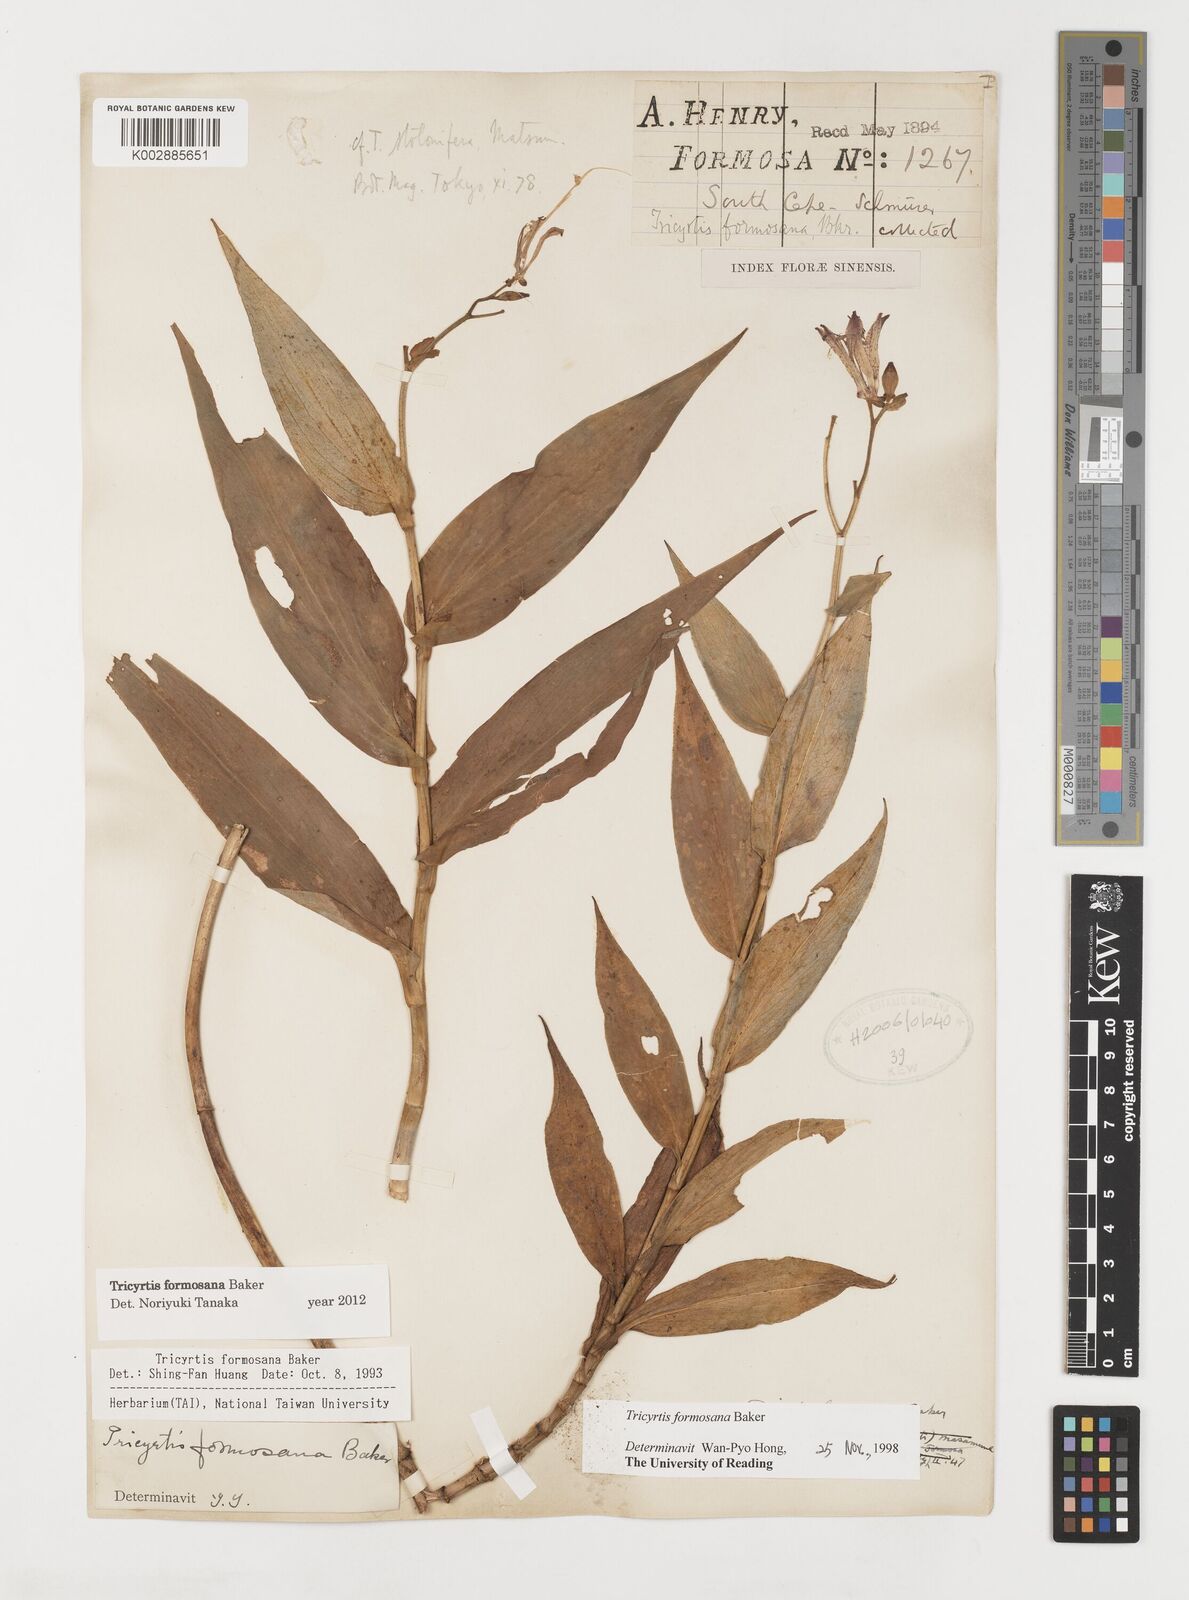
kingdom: Plantae
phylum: Tracheophyta
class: Liliopsida
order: Liliales
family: Liliaceae
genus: Tricyrtis
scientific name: Tricyrtis formosana
